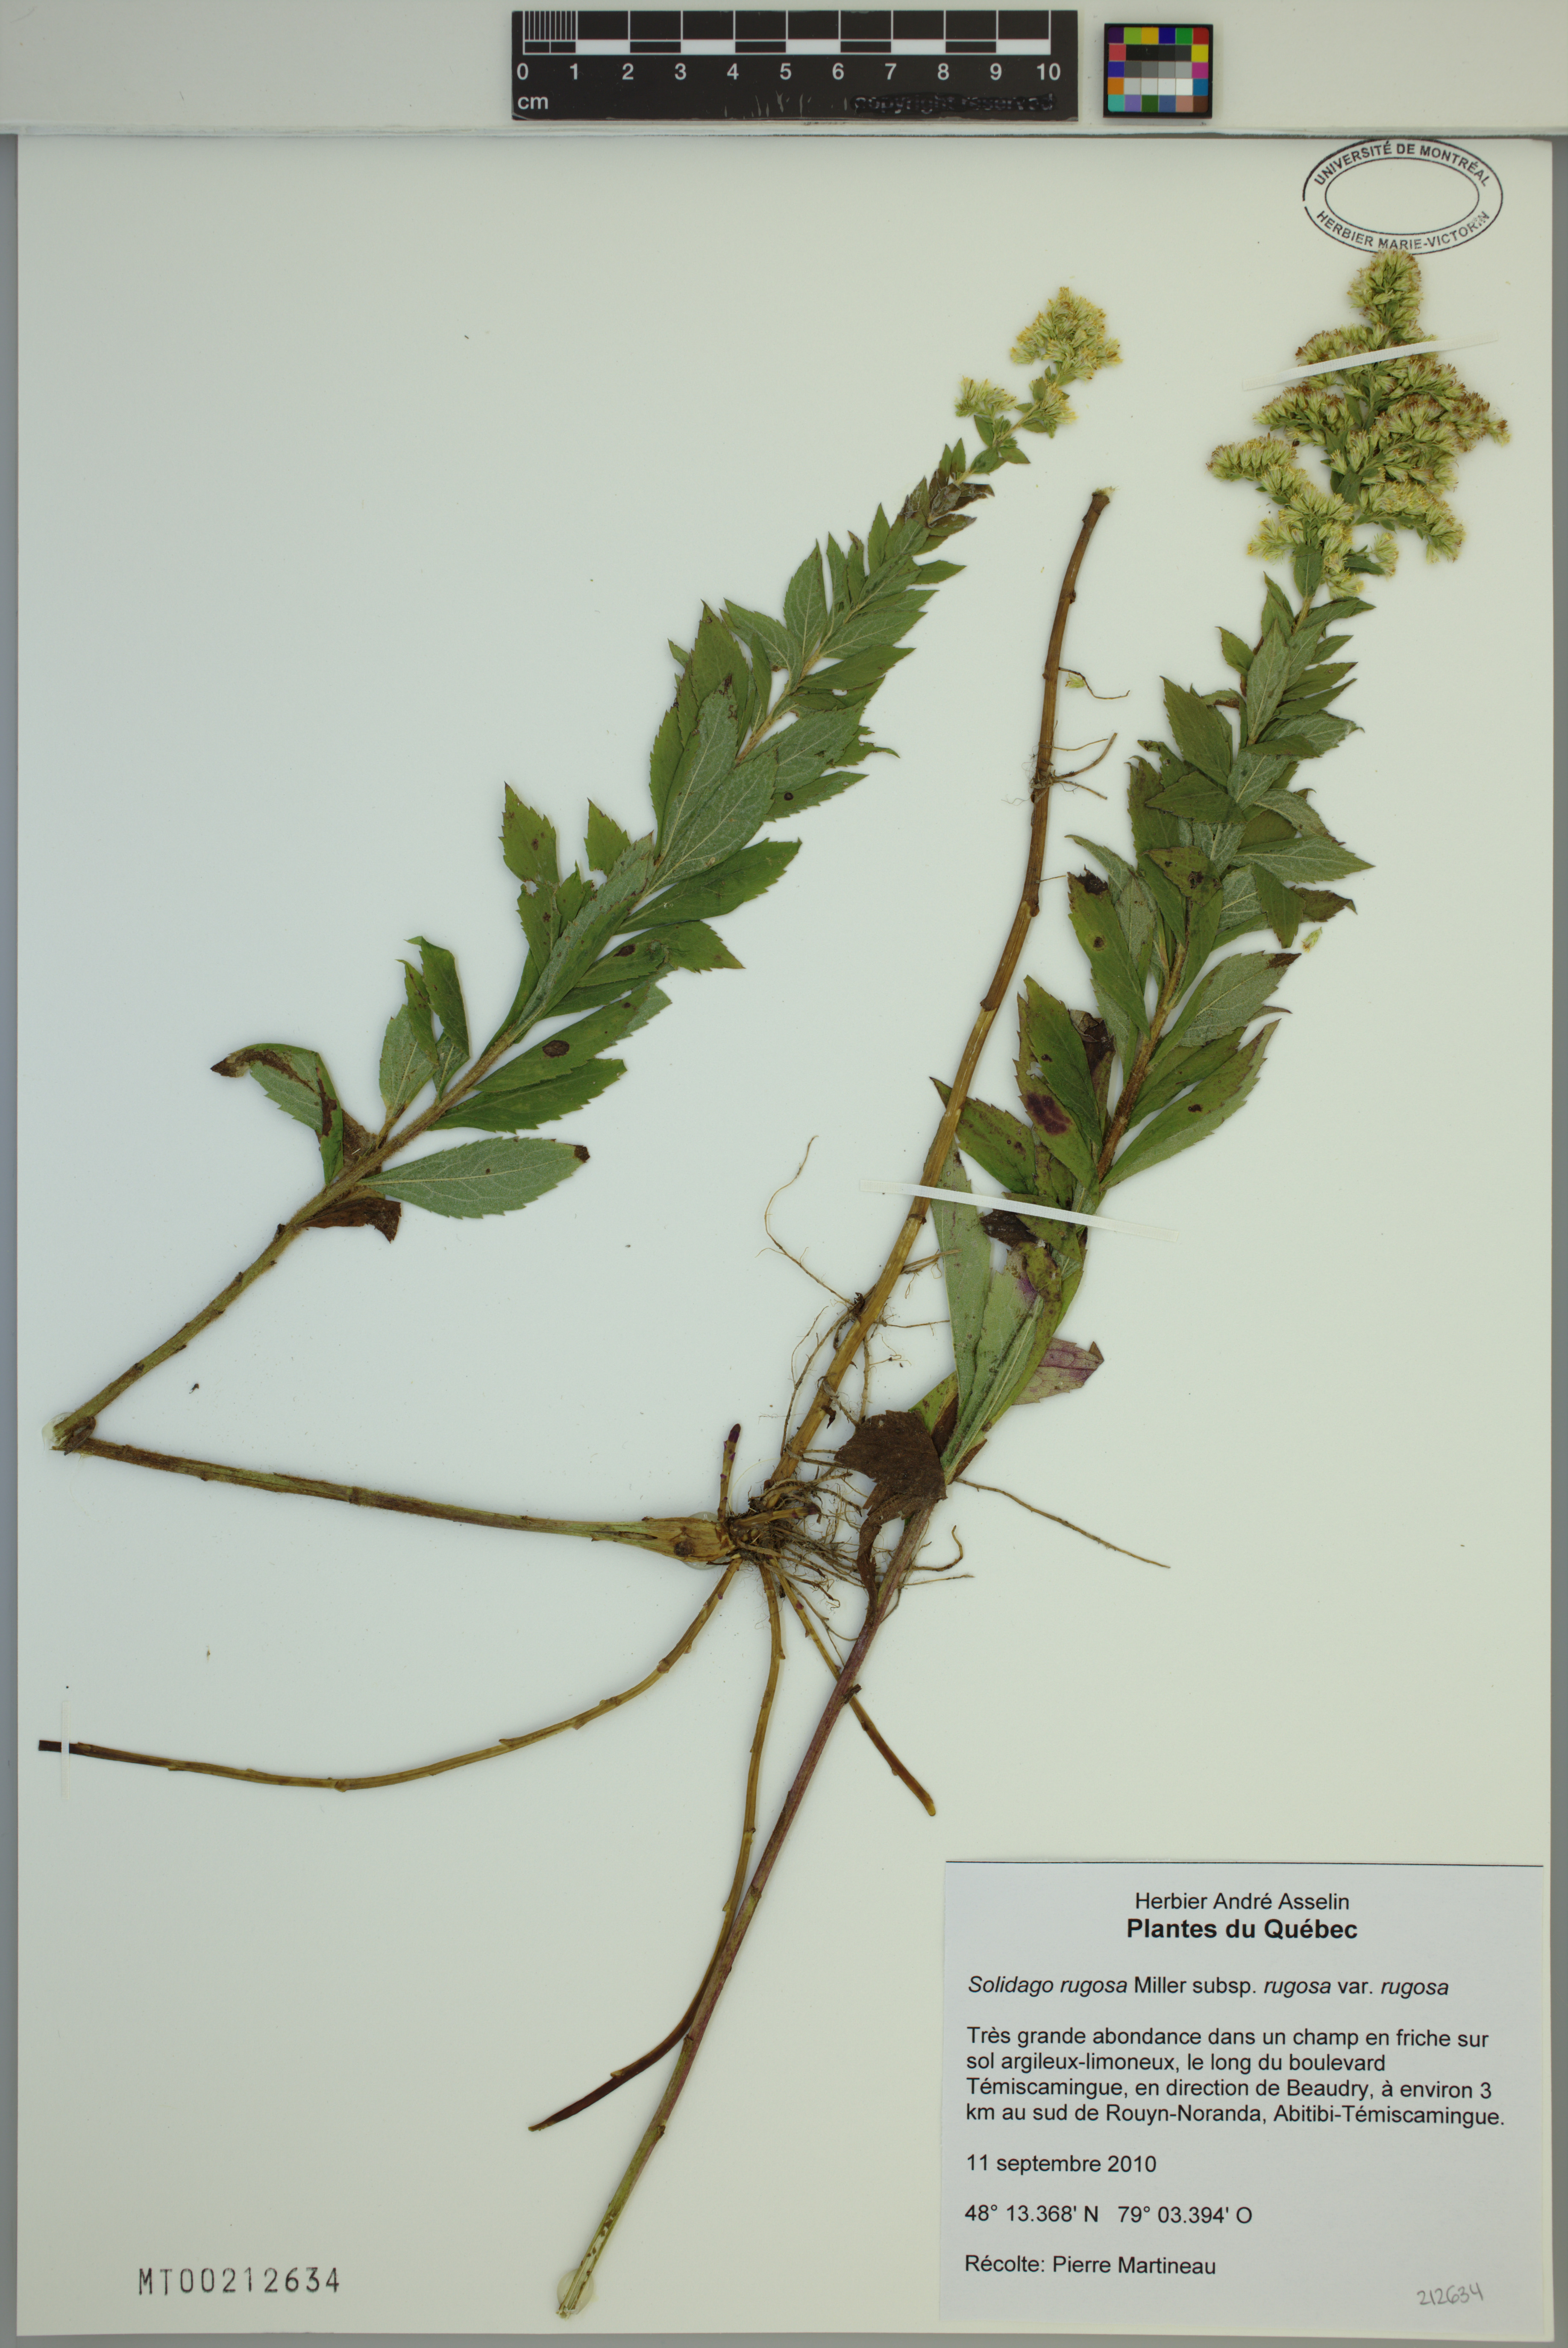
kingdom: Plantae
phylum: Tracheophyta
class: Magnoliopsida
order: Asterales
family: Asteraceae
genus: Solidago
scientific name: Solidago rugosa
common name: Rough-stemmed goldenrod
